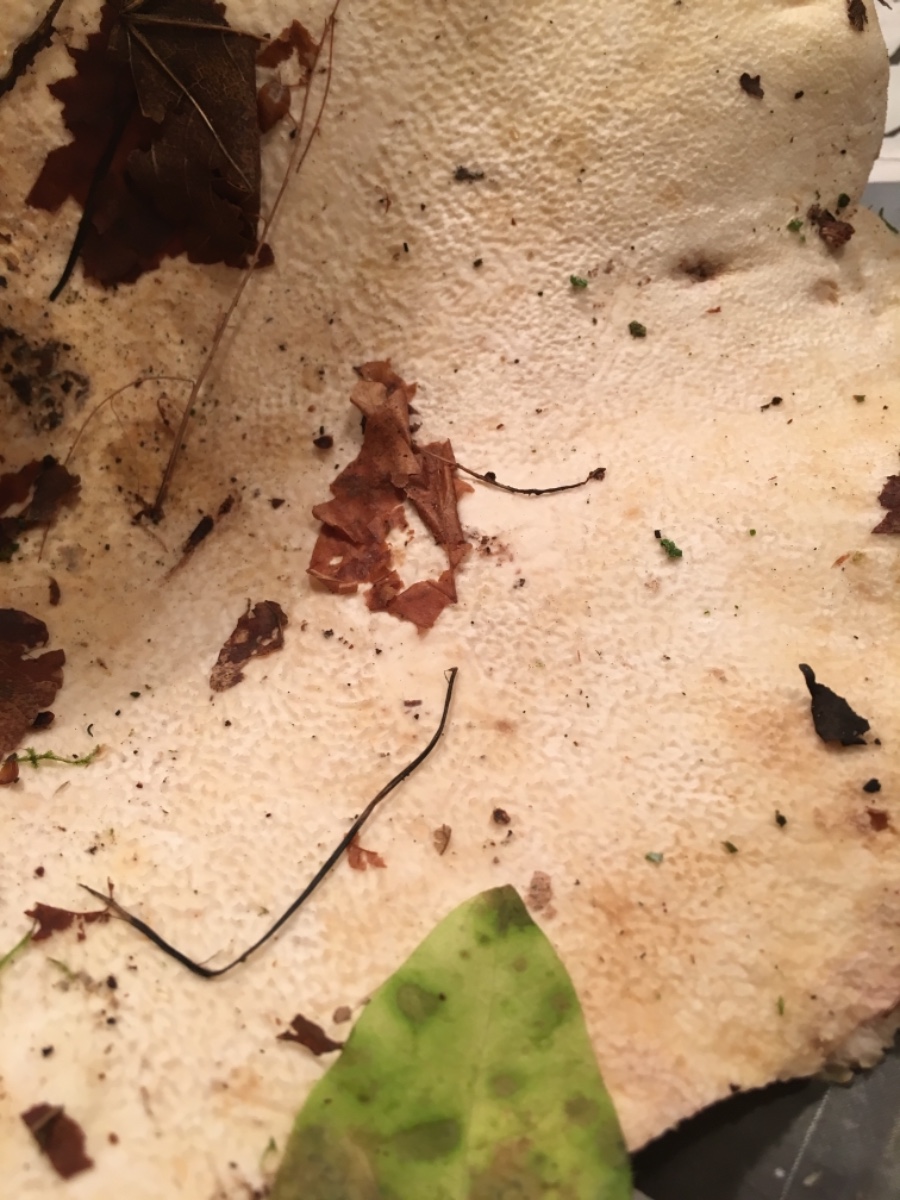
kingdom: Fungi
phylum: Basidiomycota
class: Agaricomycetes
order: Russulales
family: Russulaceae
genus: Lactifluus
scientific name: Lactifluus vellereus
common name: hvidfiltet mælkehat
